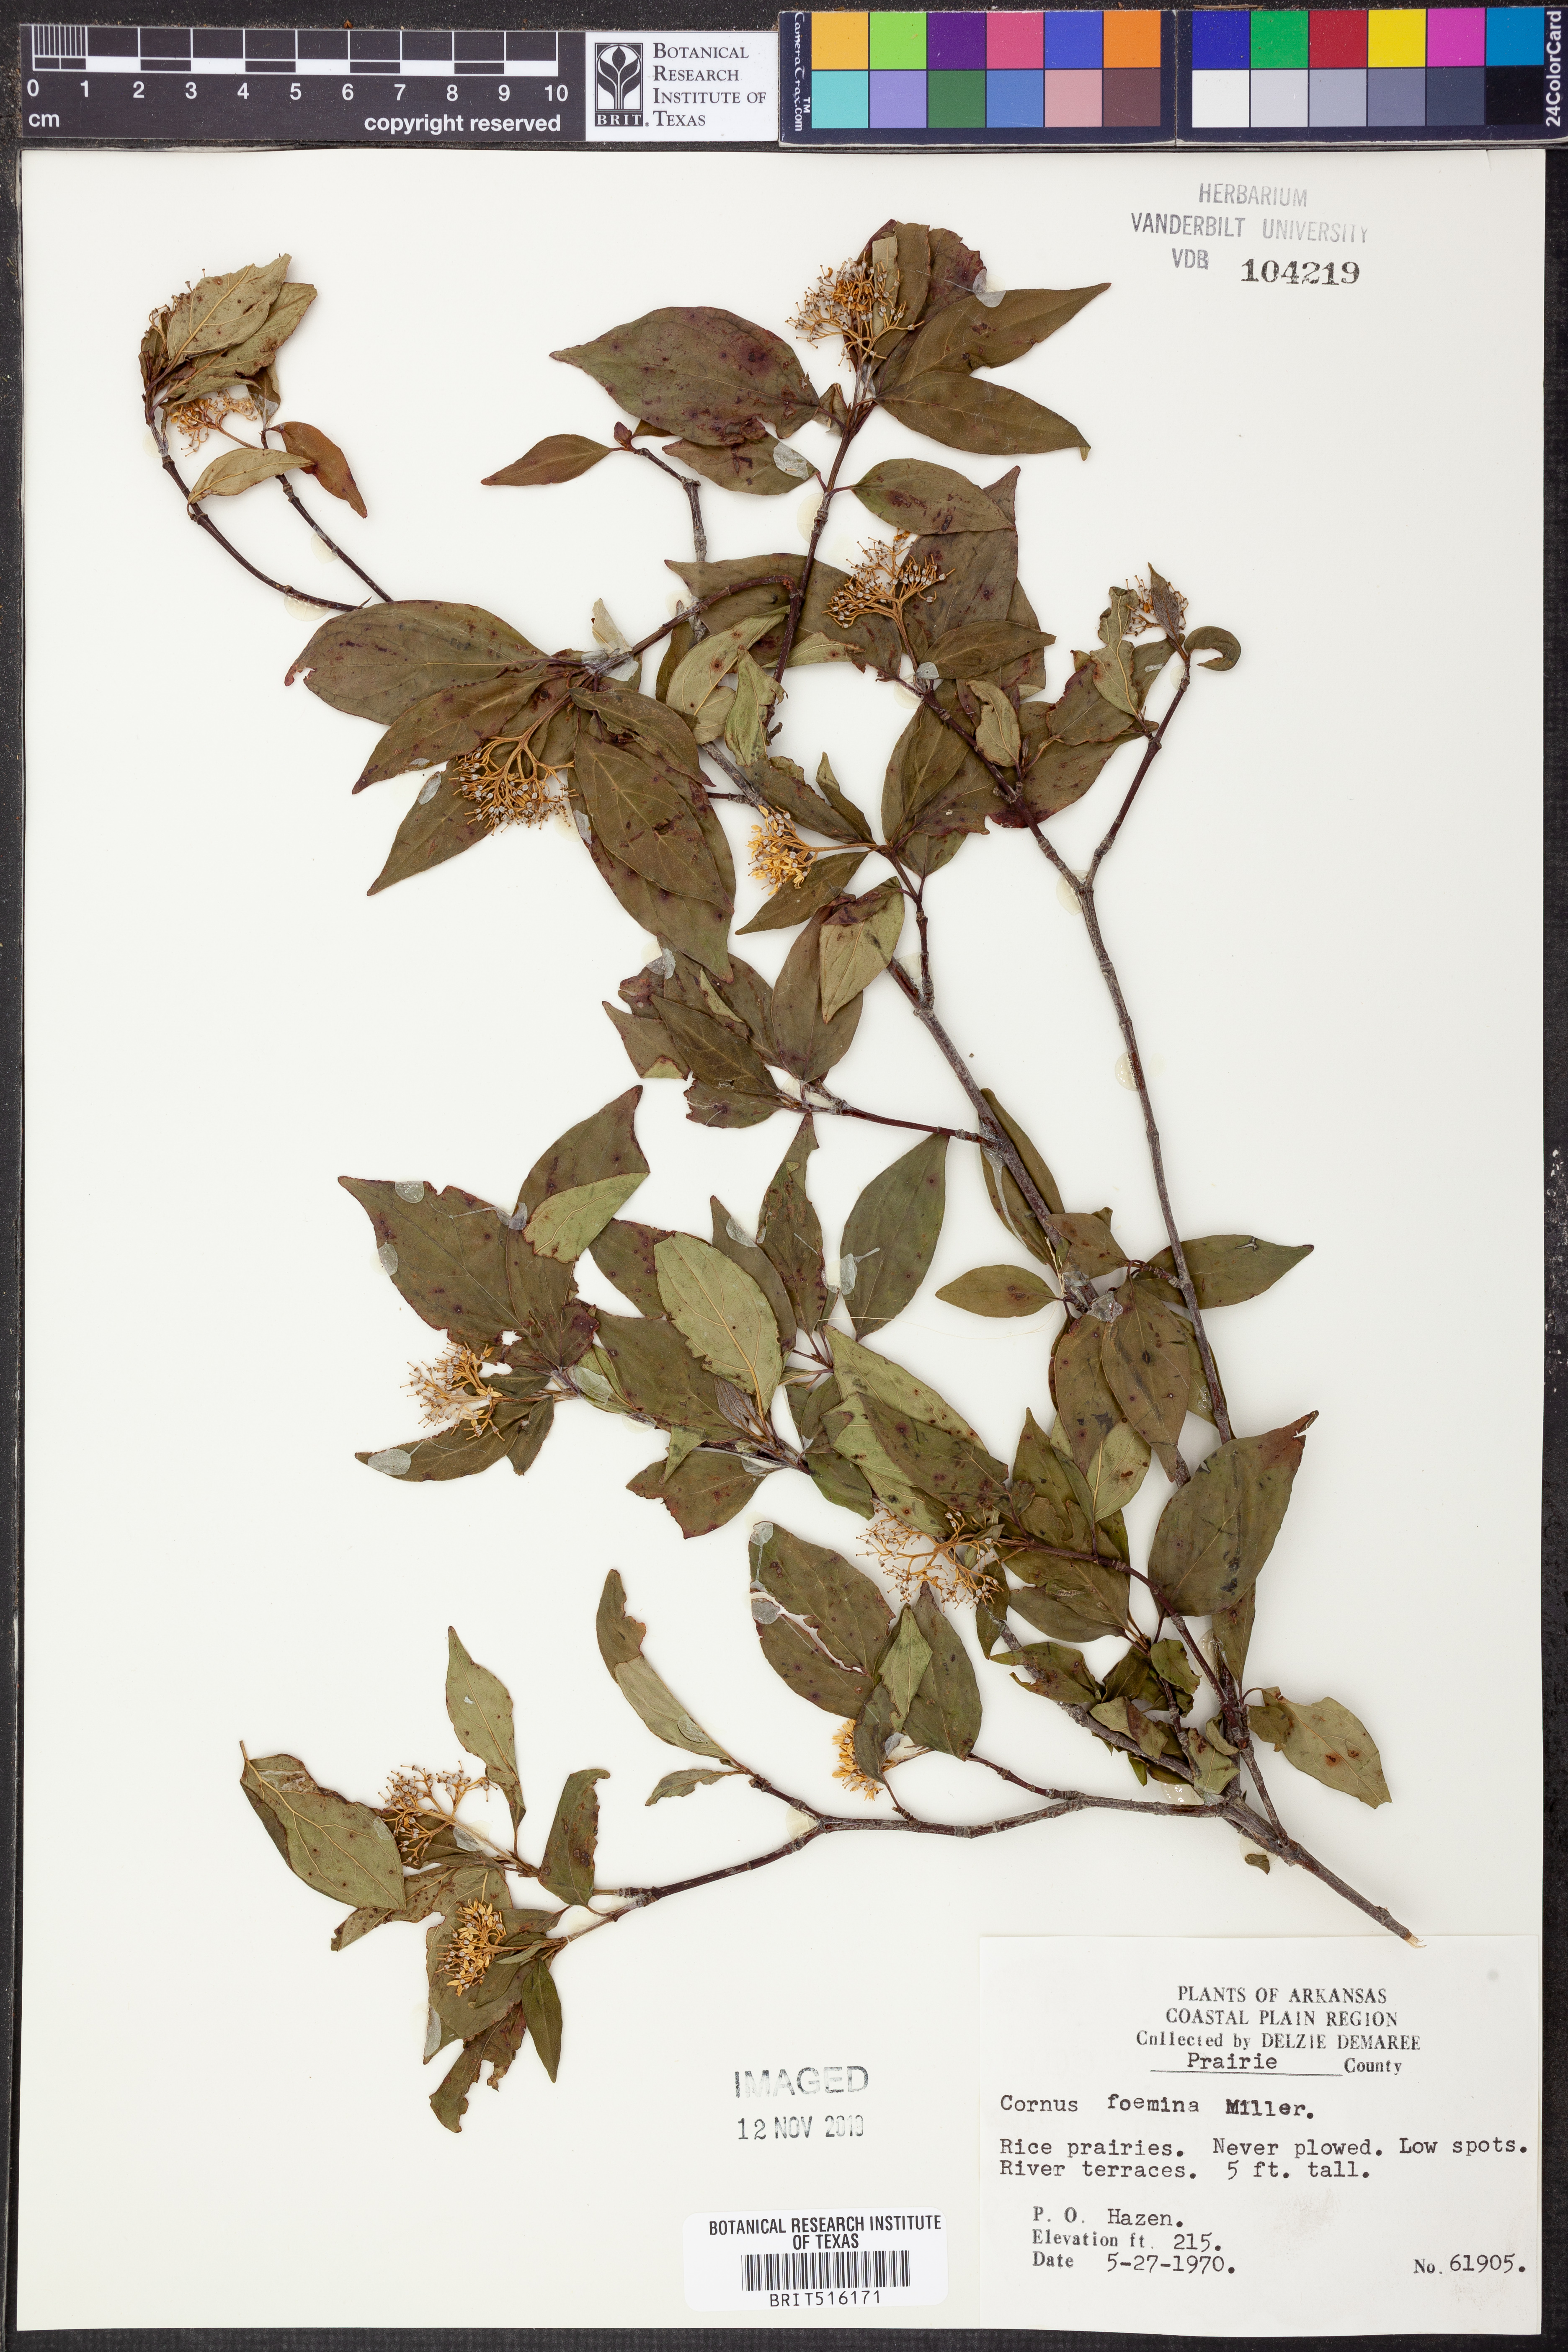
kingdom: Plantae
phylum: Tracheophyta
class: Magnoliopsida
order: Cornales
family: Cornaceae
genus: Cornus
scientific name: Cornus foemina
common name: Swamp dogwood
